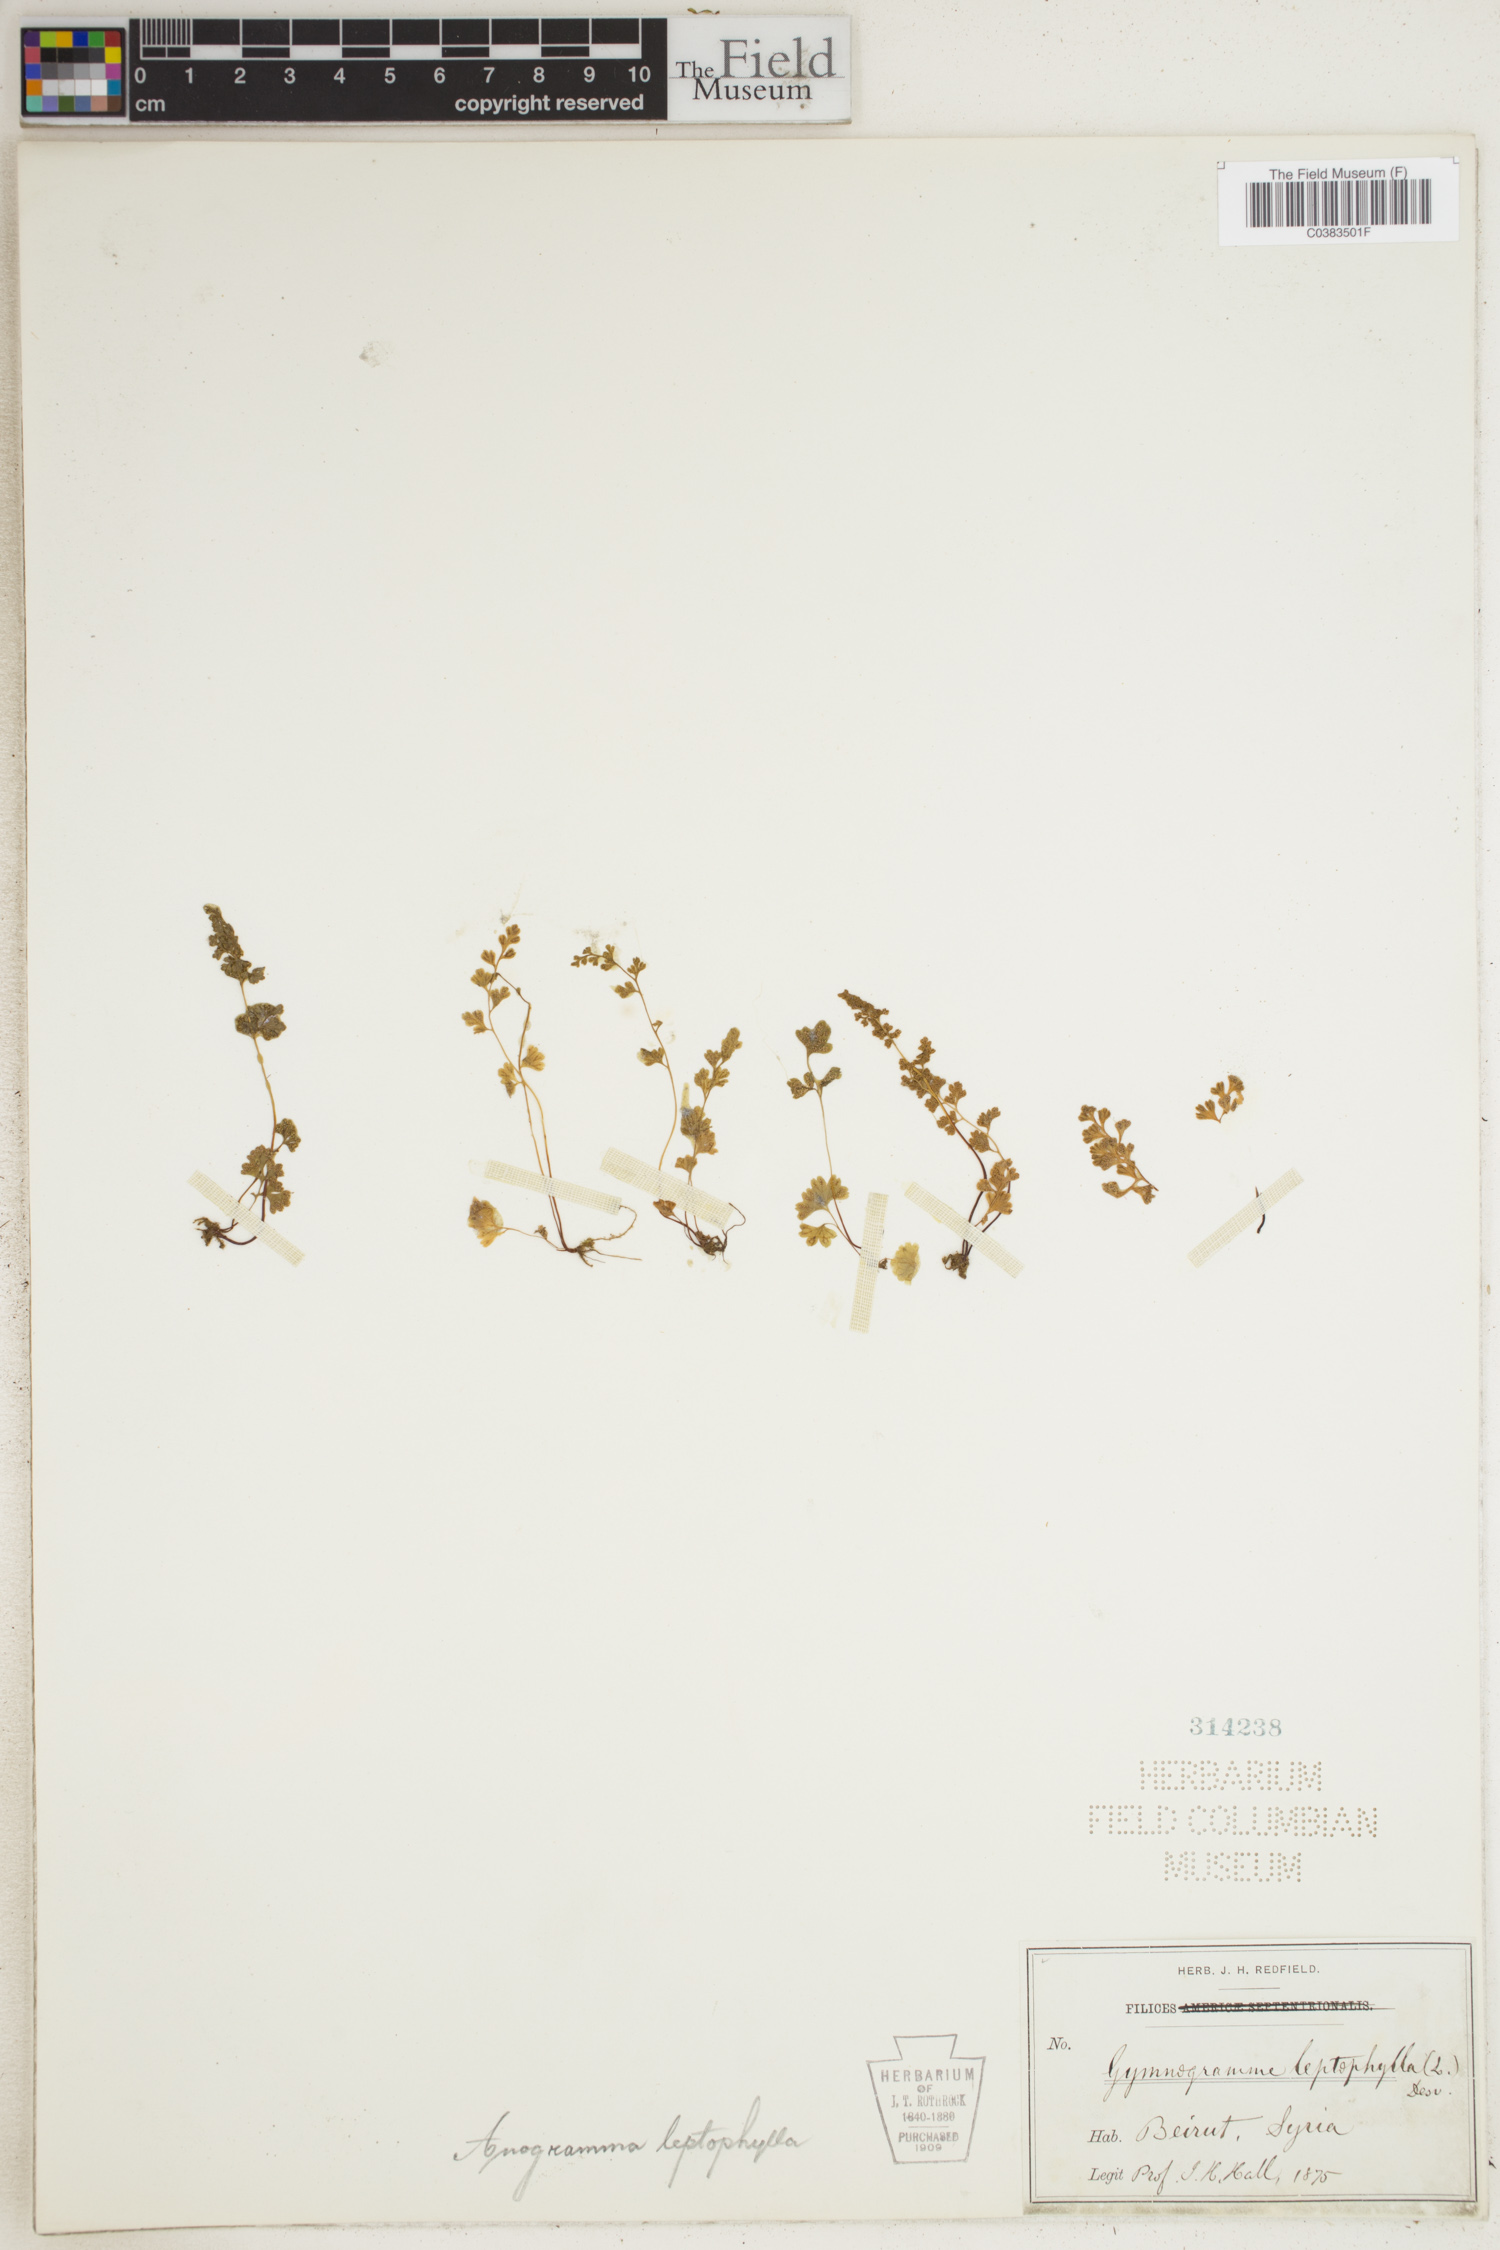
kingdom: Plantae
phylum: Tracheophyta
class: Polypodiopsida
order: Polypodiales
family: Pteridaceae
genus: Anogramma
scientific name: Anogramma leptophylla
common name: Jersey fern
